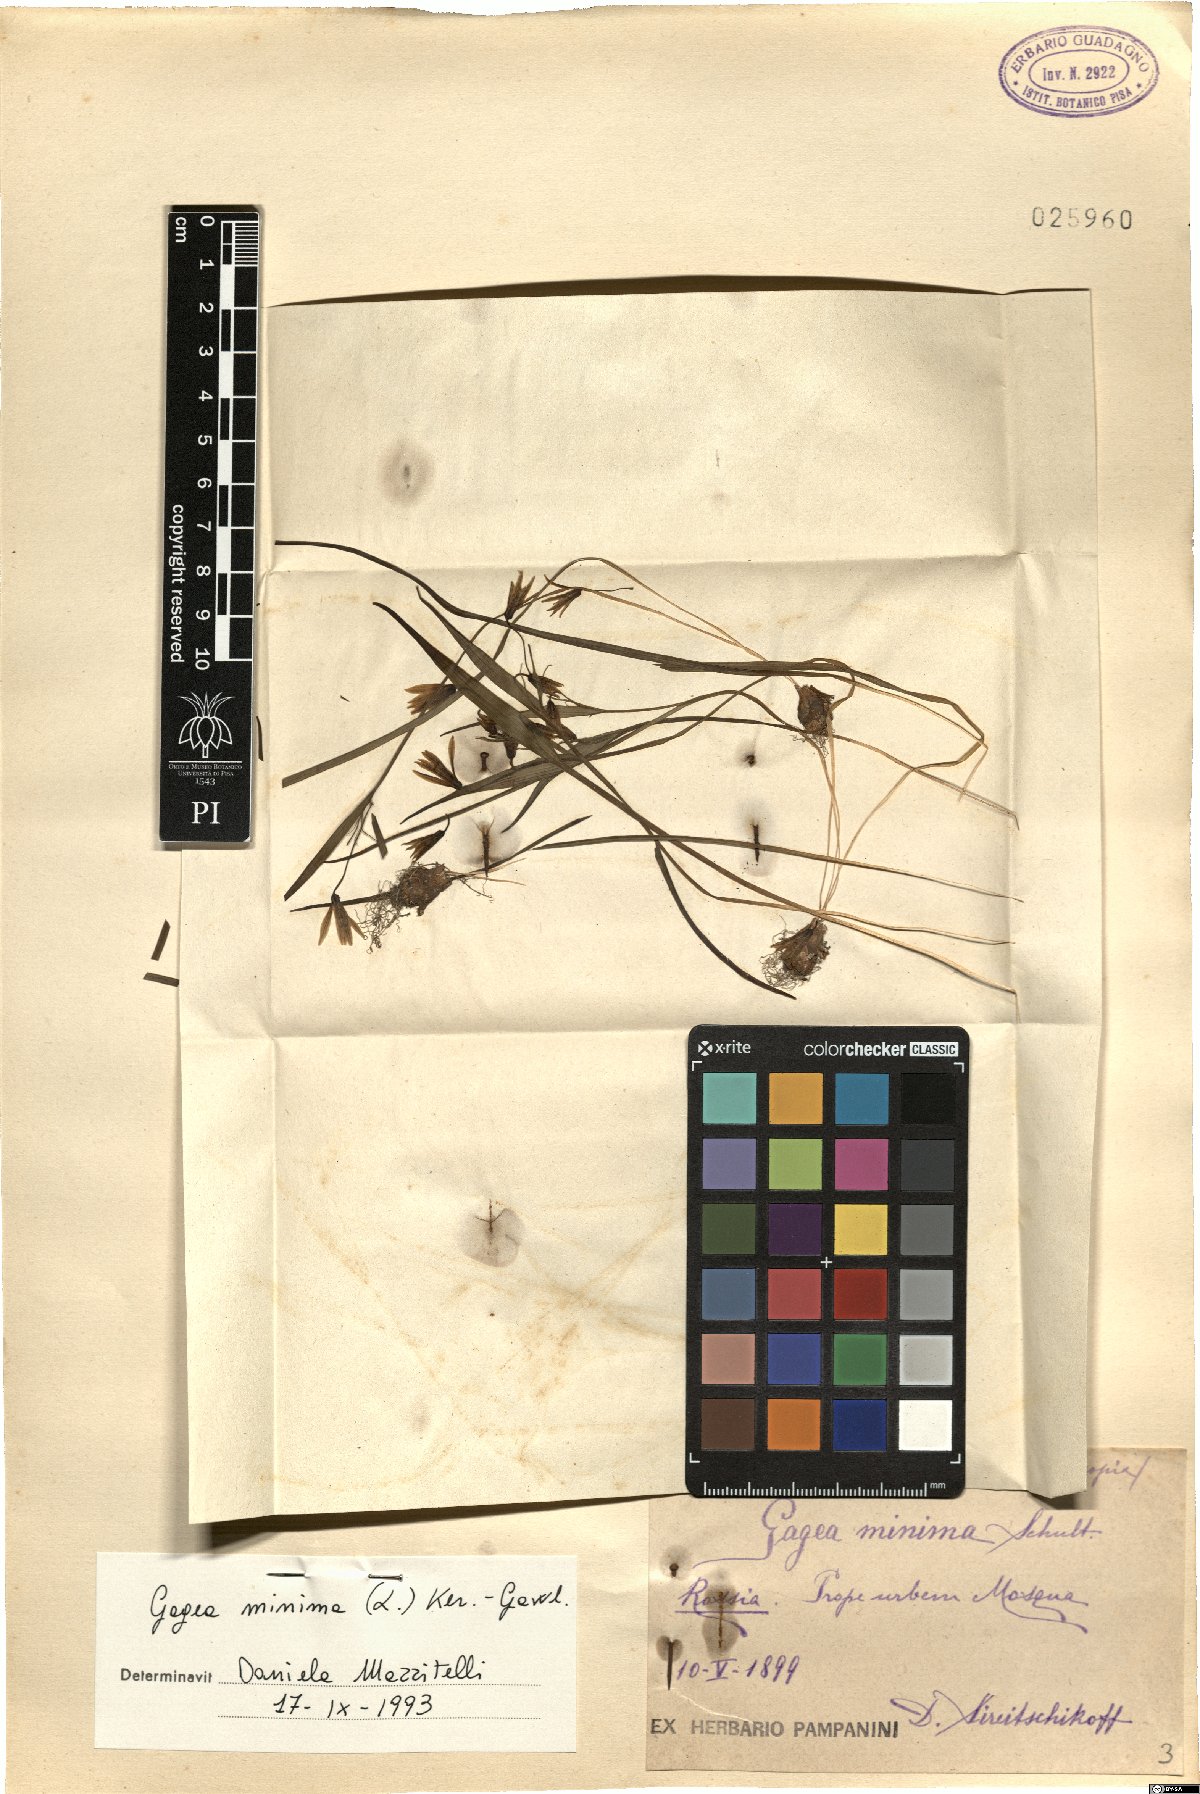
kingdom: Plantae
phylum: Tracheophyta
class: Liliopsida
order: Liliales
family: Liliaceae
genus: Gagea
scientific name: Gagea minima
